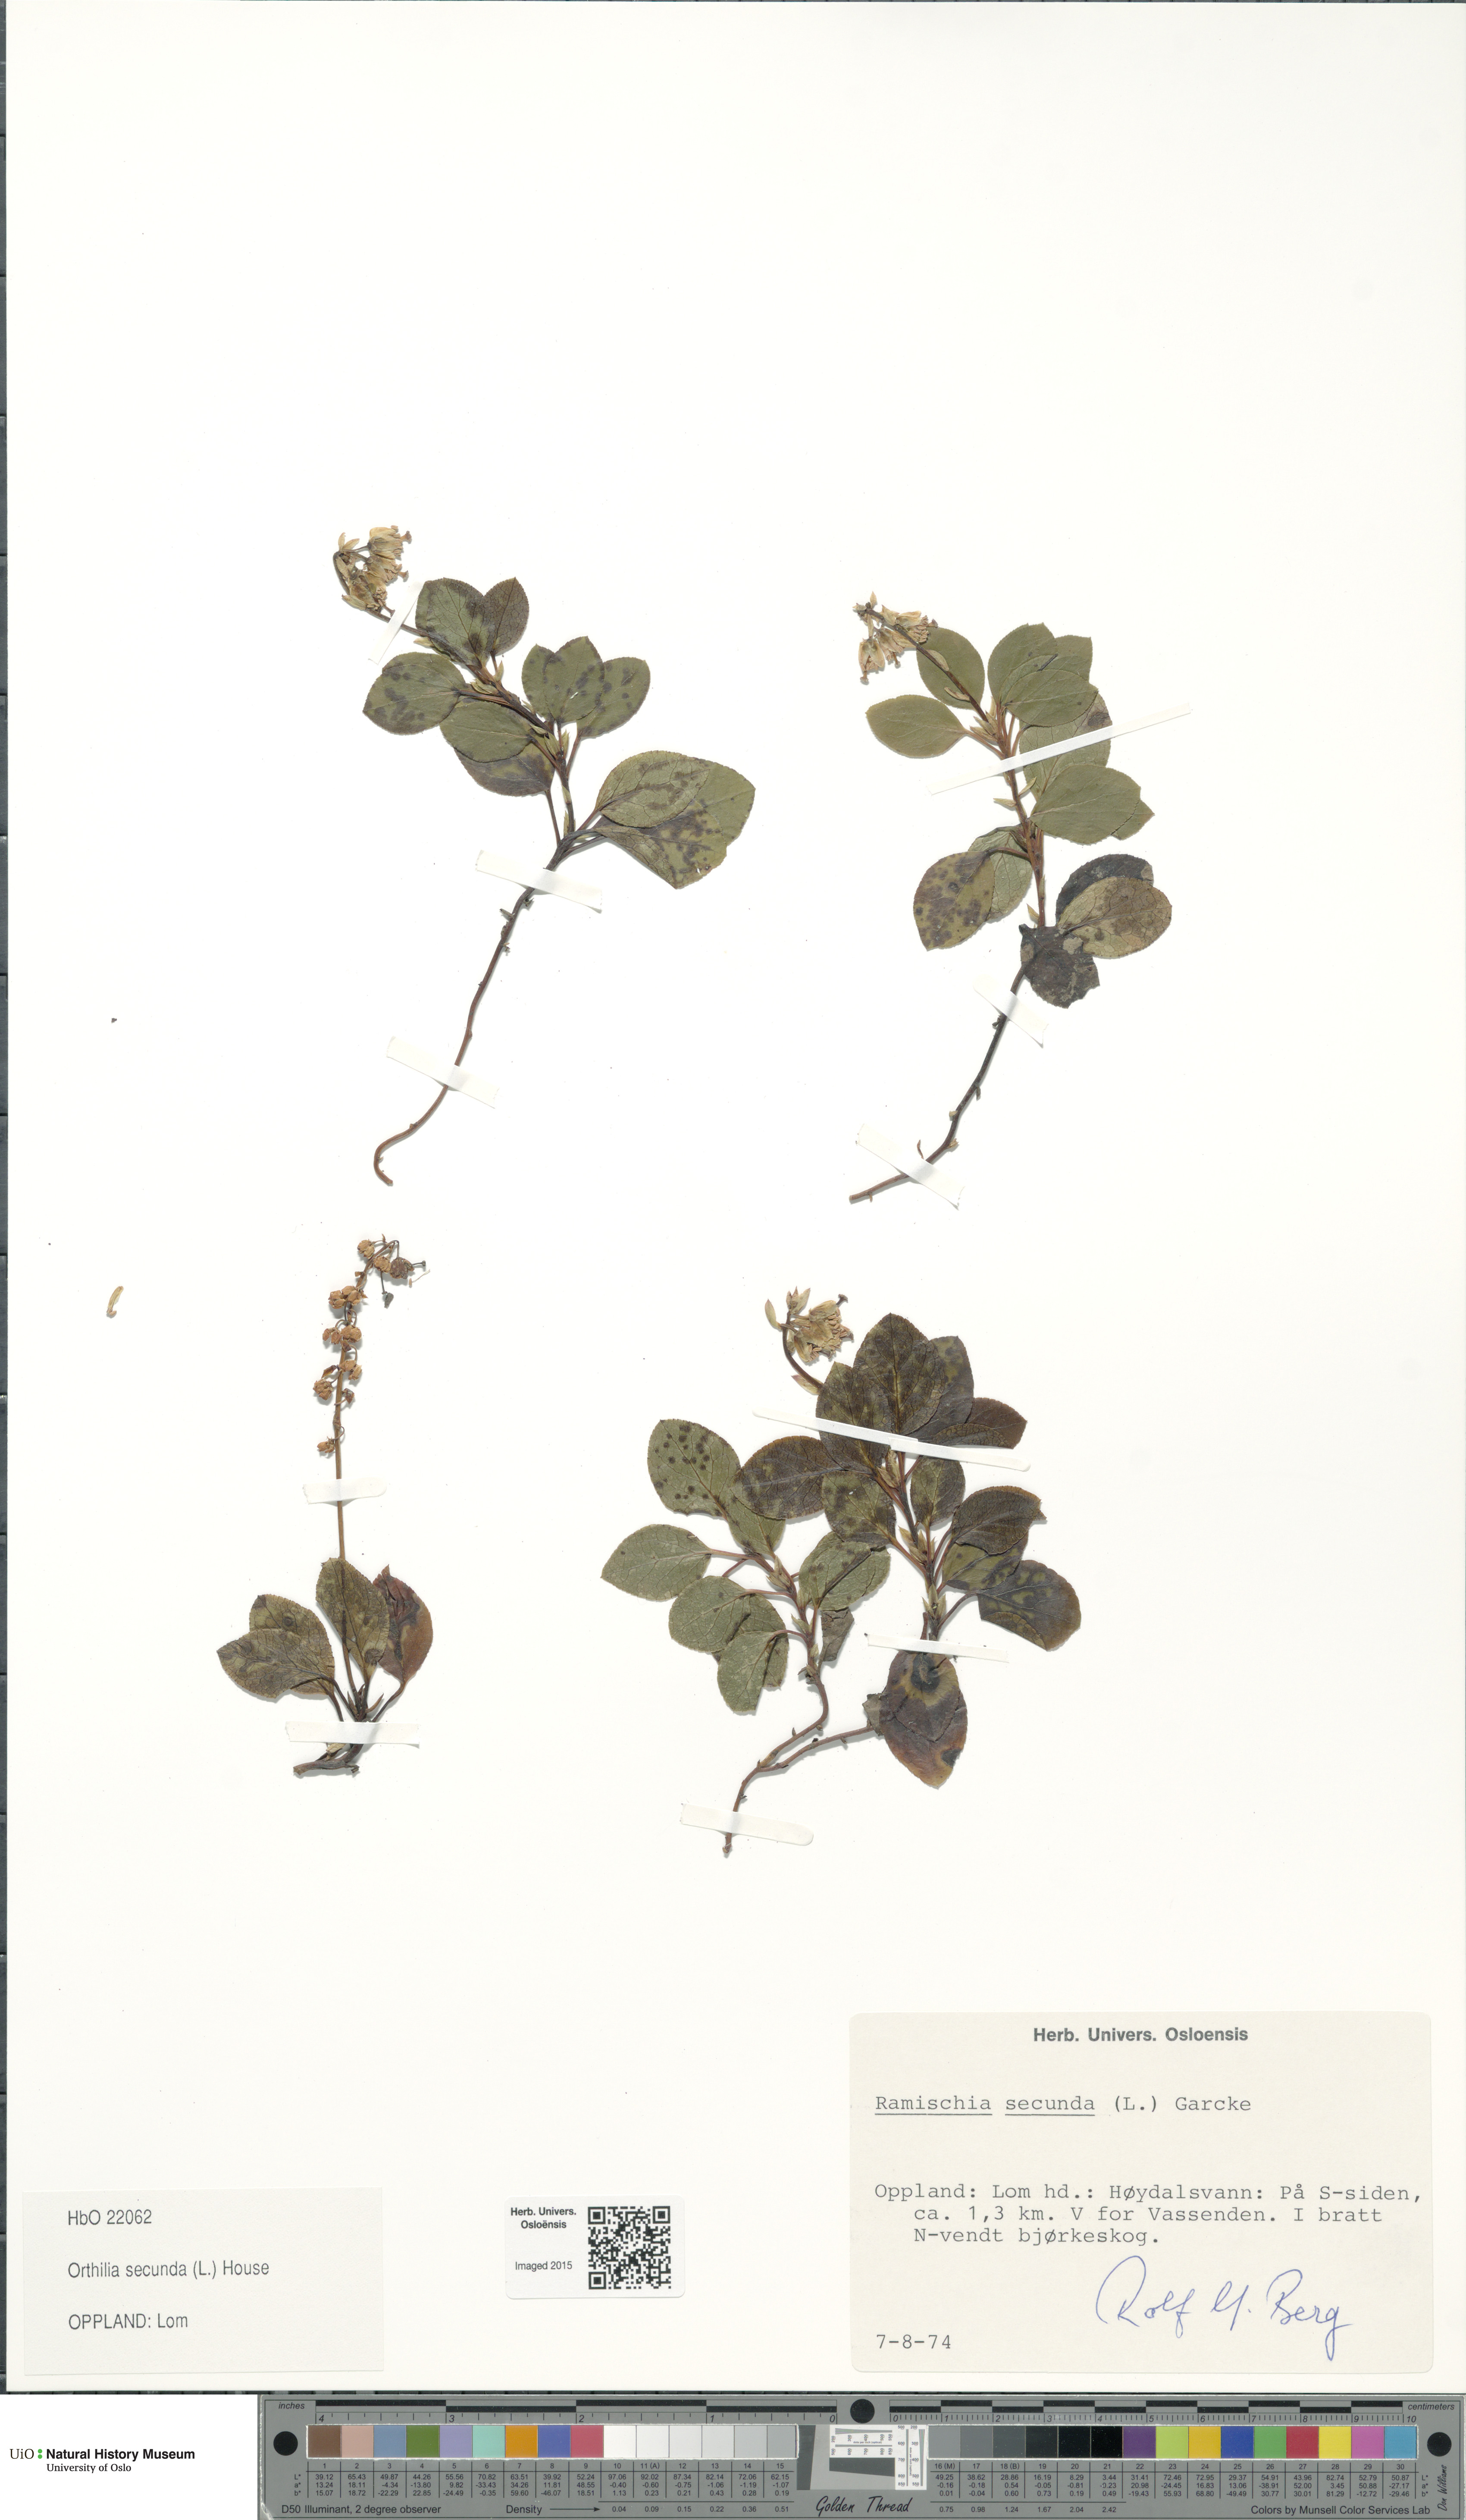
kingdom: Plantae
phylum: Tracheophyta
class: Magnoliopsida
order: Ericales
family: Ericaceae
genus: Orthilia
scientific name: Orthilia secunda
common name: One-sided orthilia
